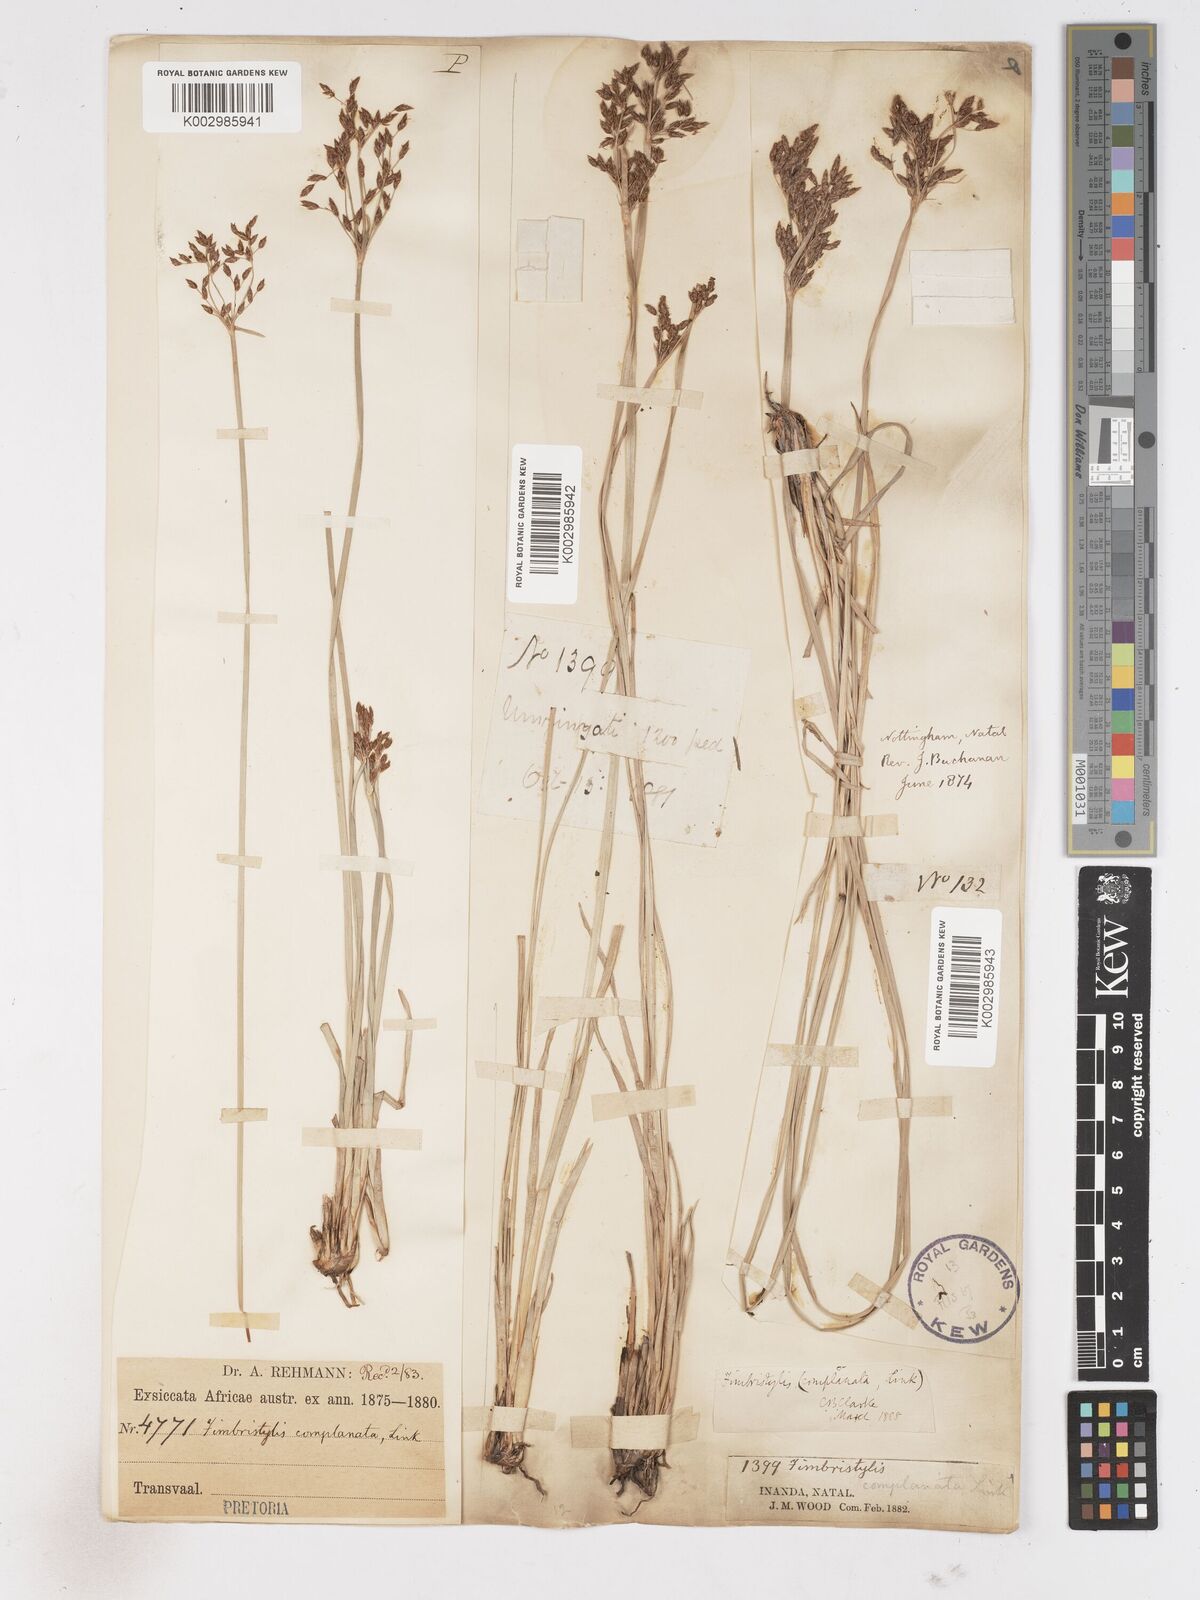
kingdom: Plantae
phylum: Tracheophyta
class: Liliopsida
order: Poales
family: Cyperaceae
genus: Fimbristylis
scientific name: Fimbristylis complanata
